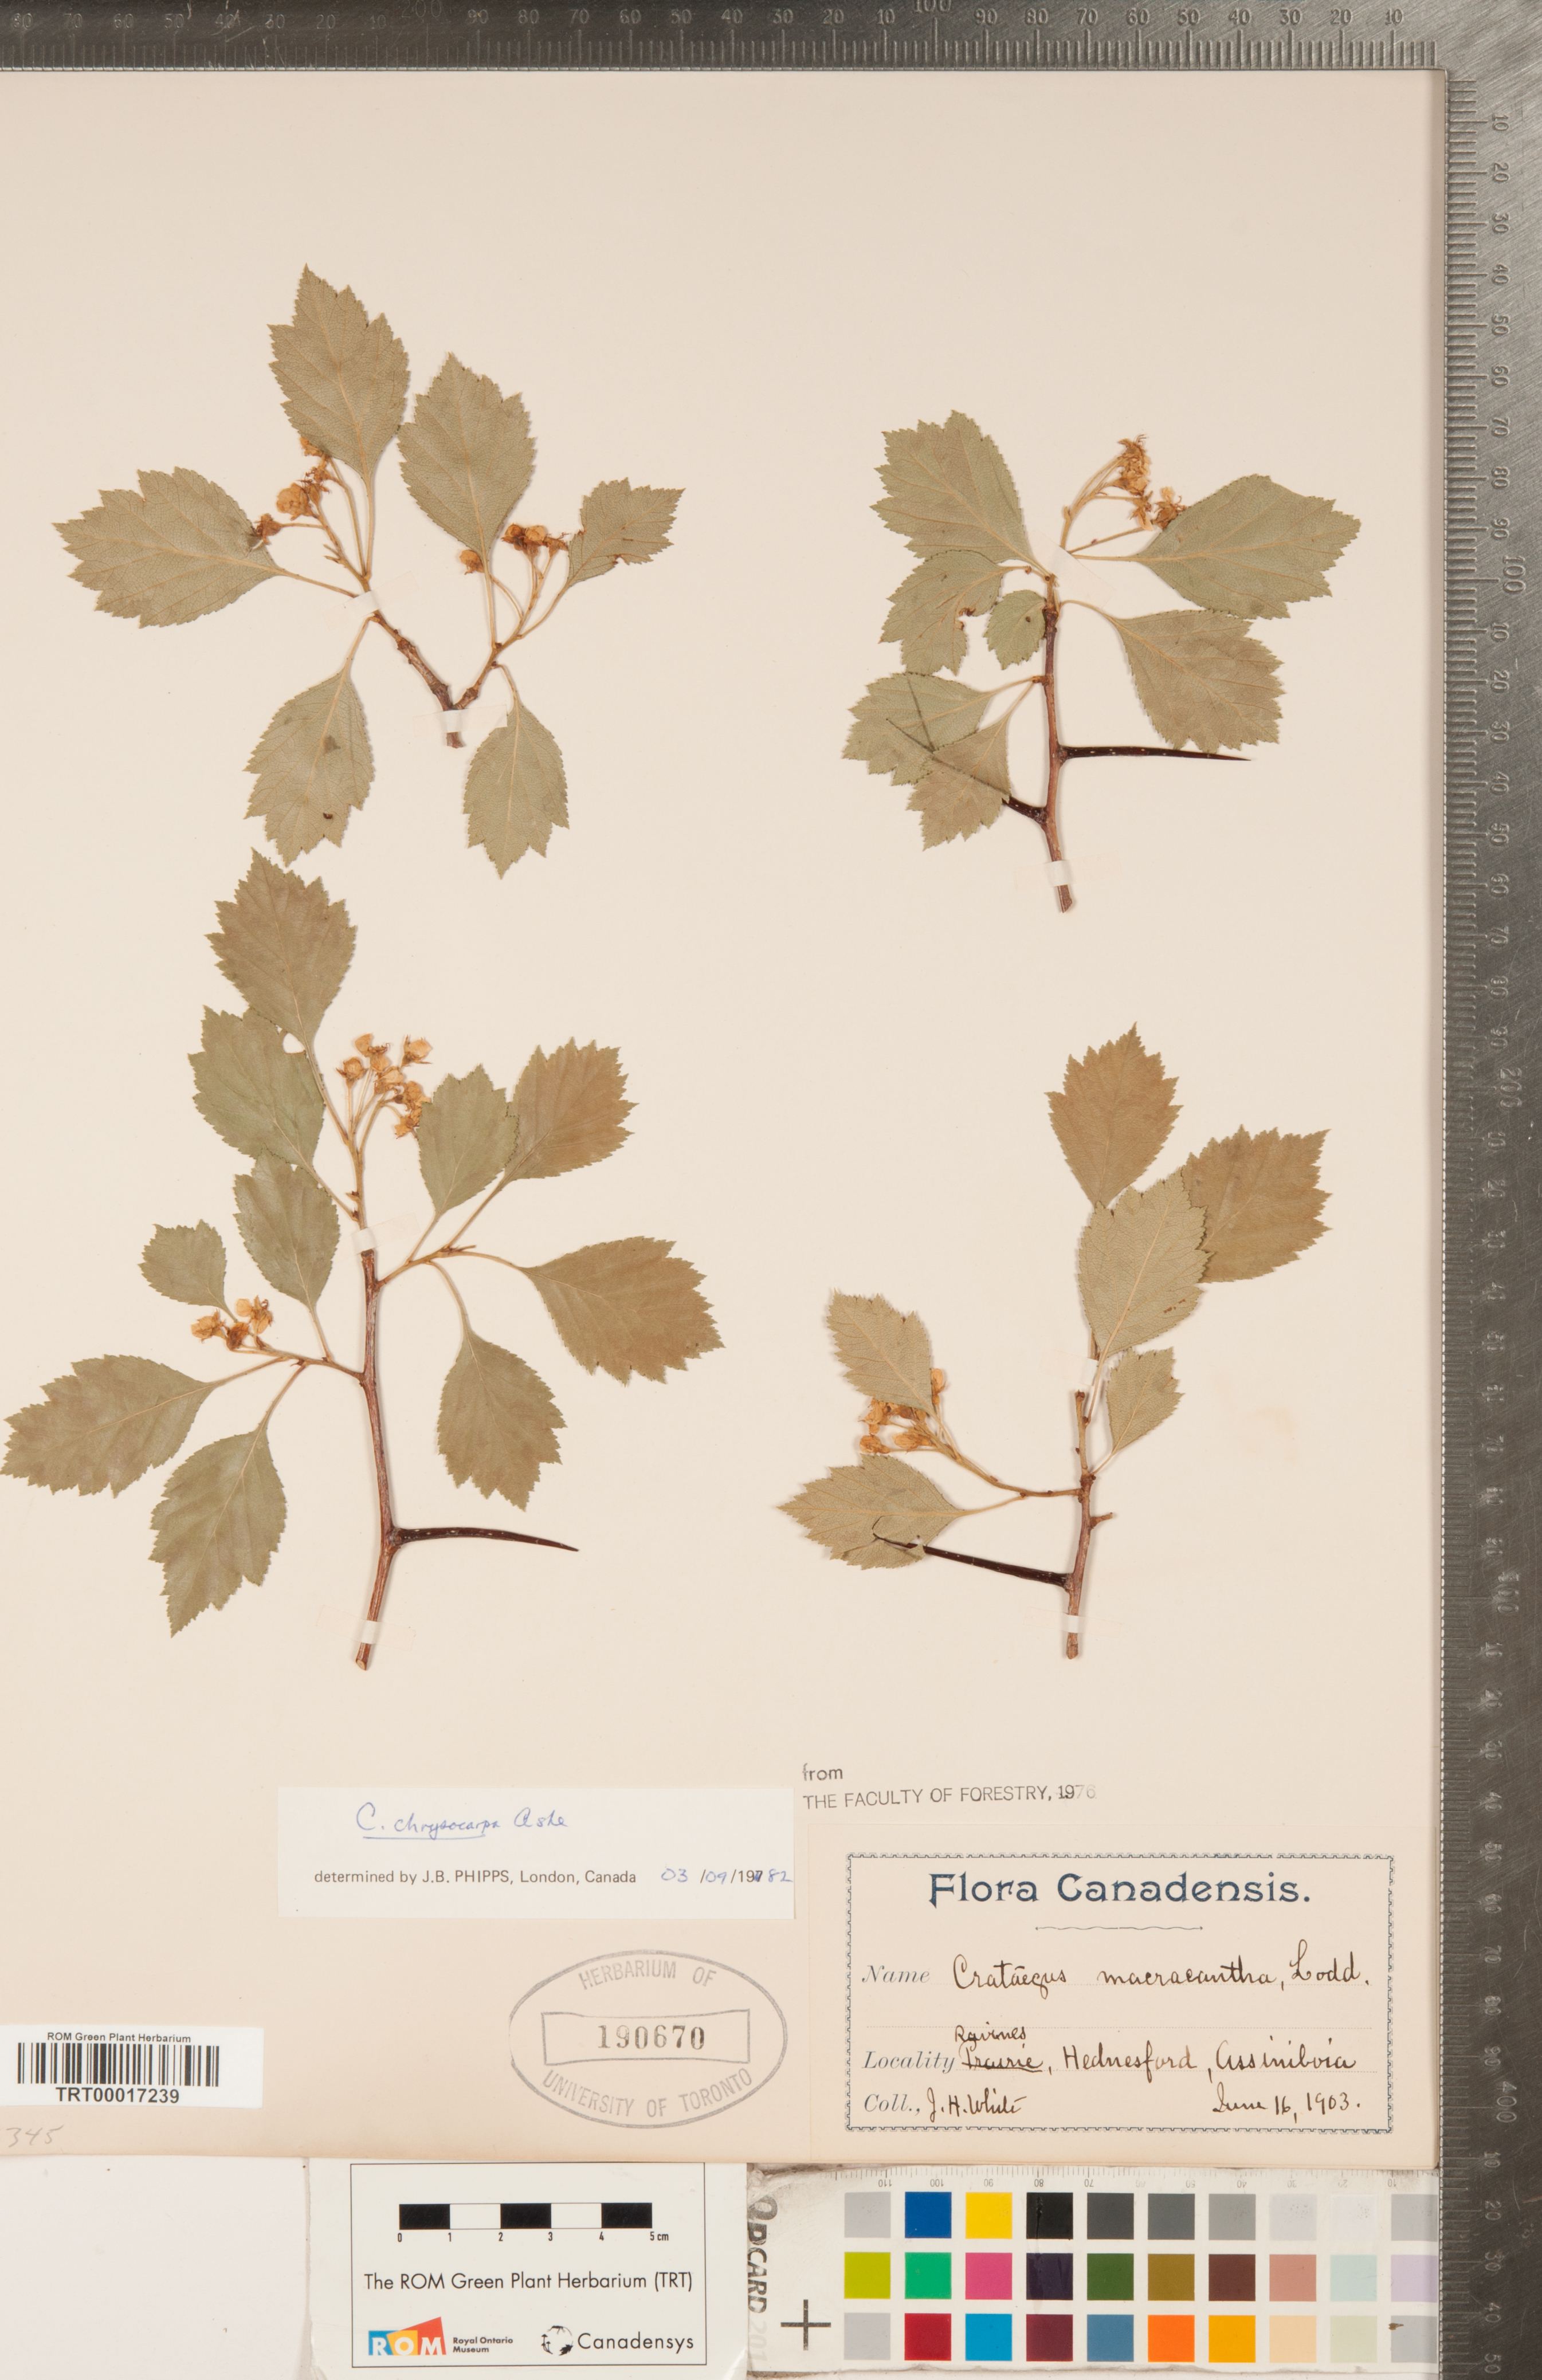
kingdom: Plantae
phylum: Tracheophyta
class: Magnoliopsida
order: Rosales
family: Rosaceae
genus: Crataegus
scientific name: Crataegus chrysocarpa
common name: Fire-berry hawthorn
